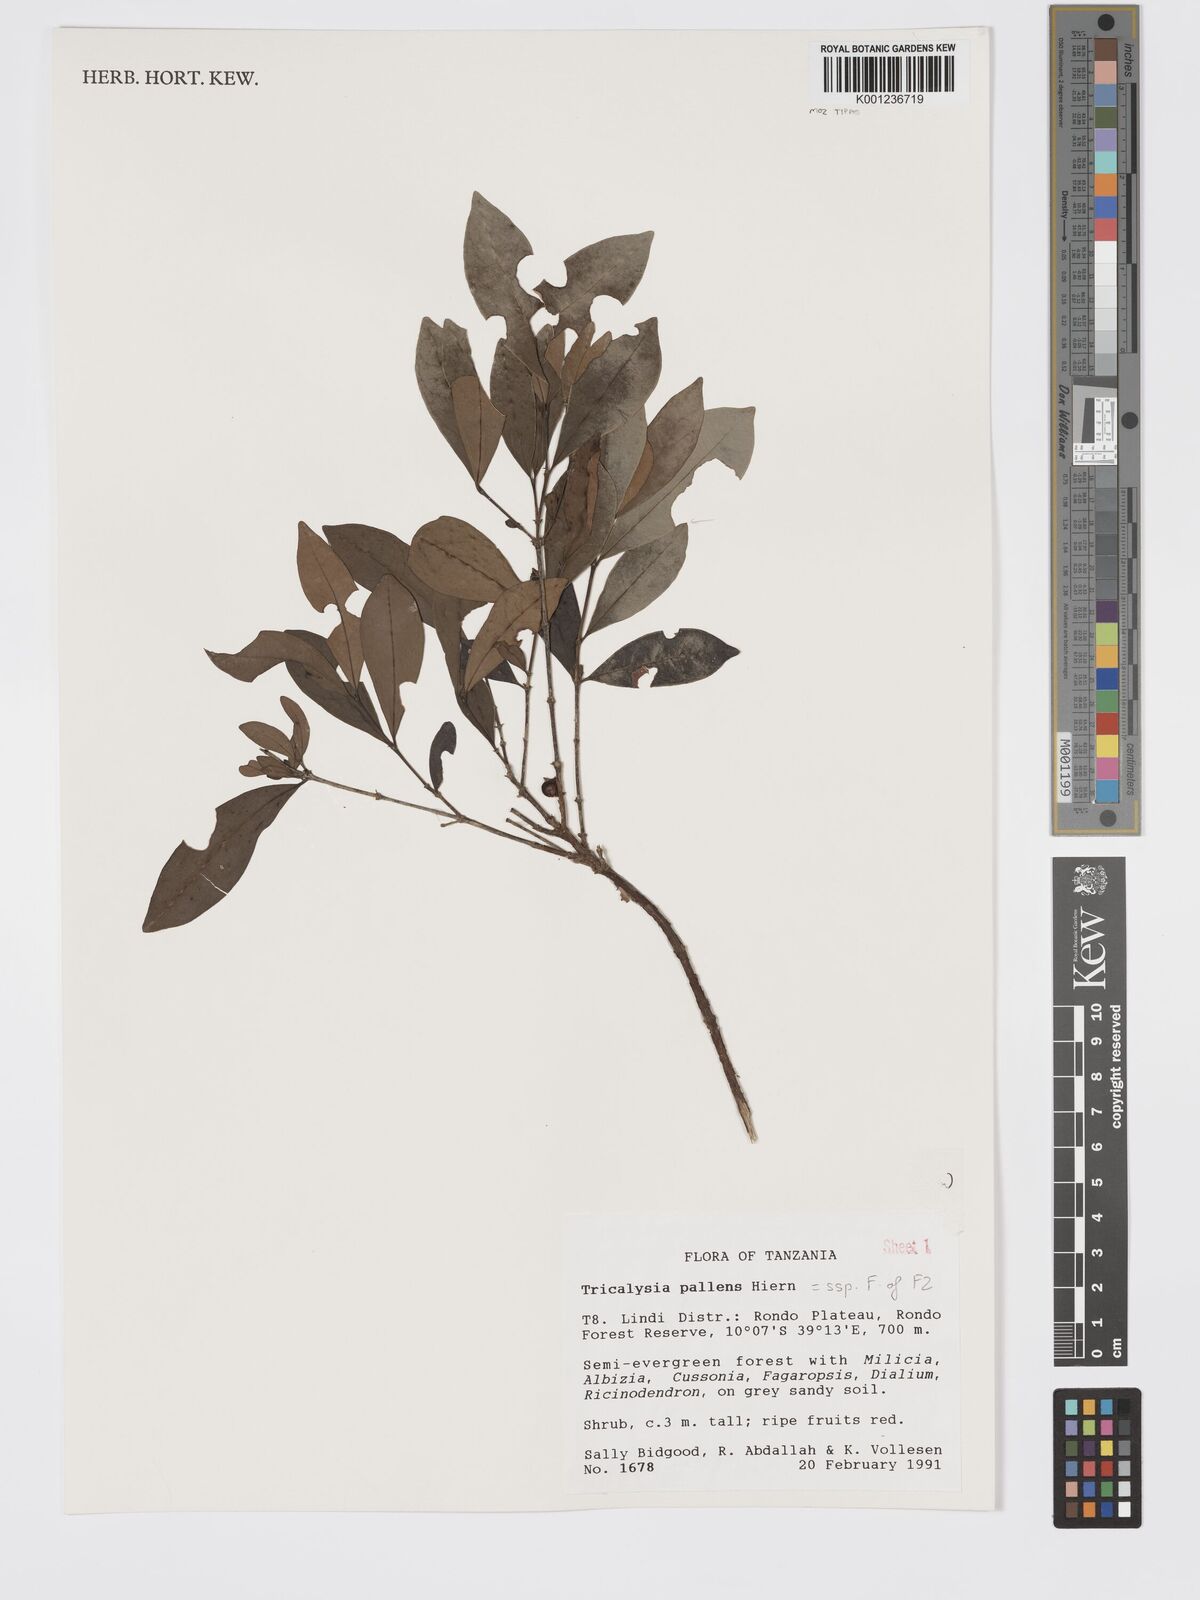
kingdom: Plantae
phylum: Tracheophyta
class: Magnoliopsida
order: Gentianales
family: Rubiaceae
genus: Tricalysia
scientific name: Tricalysia pallens
